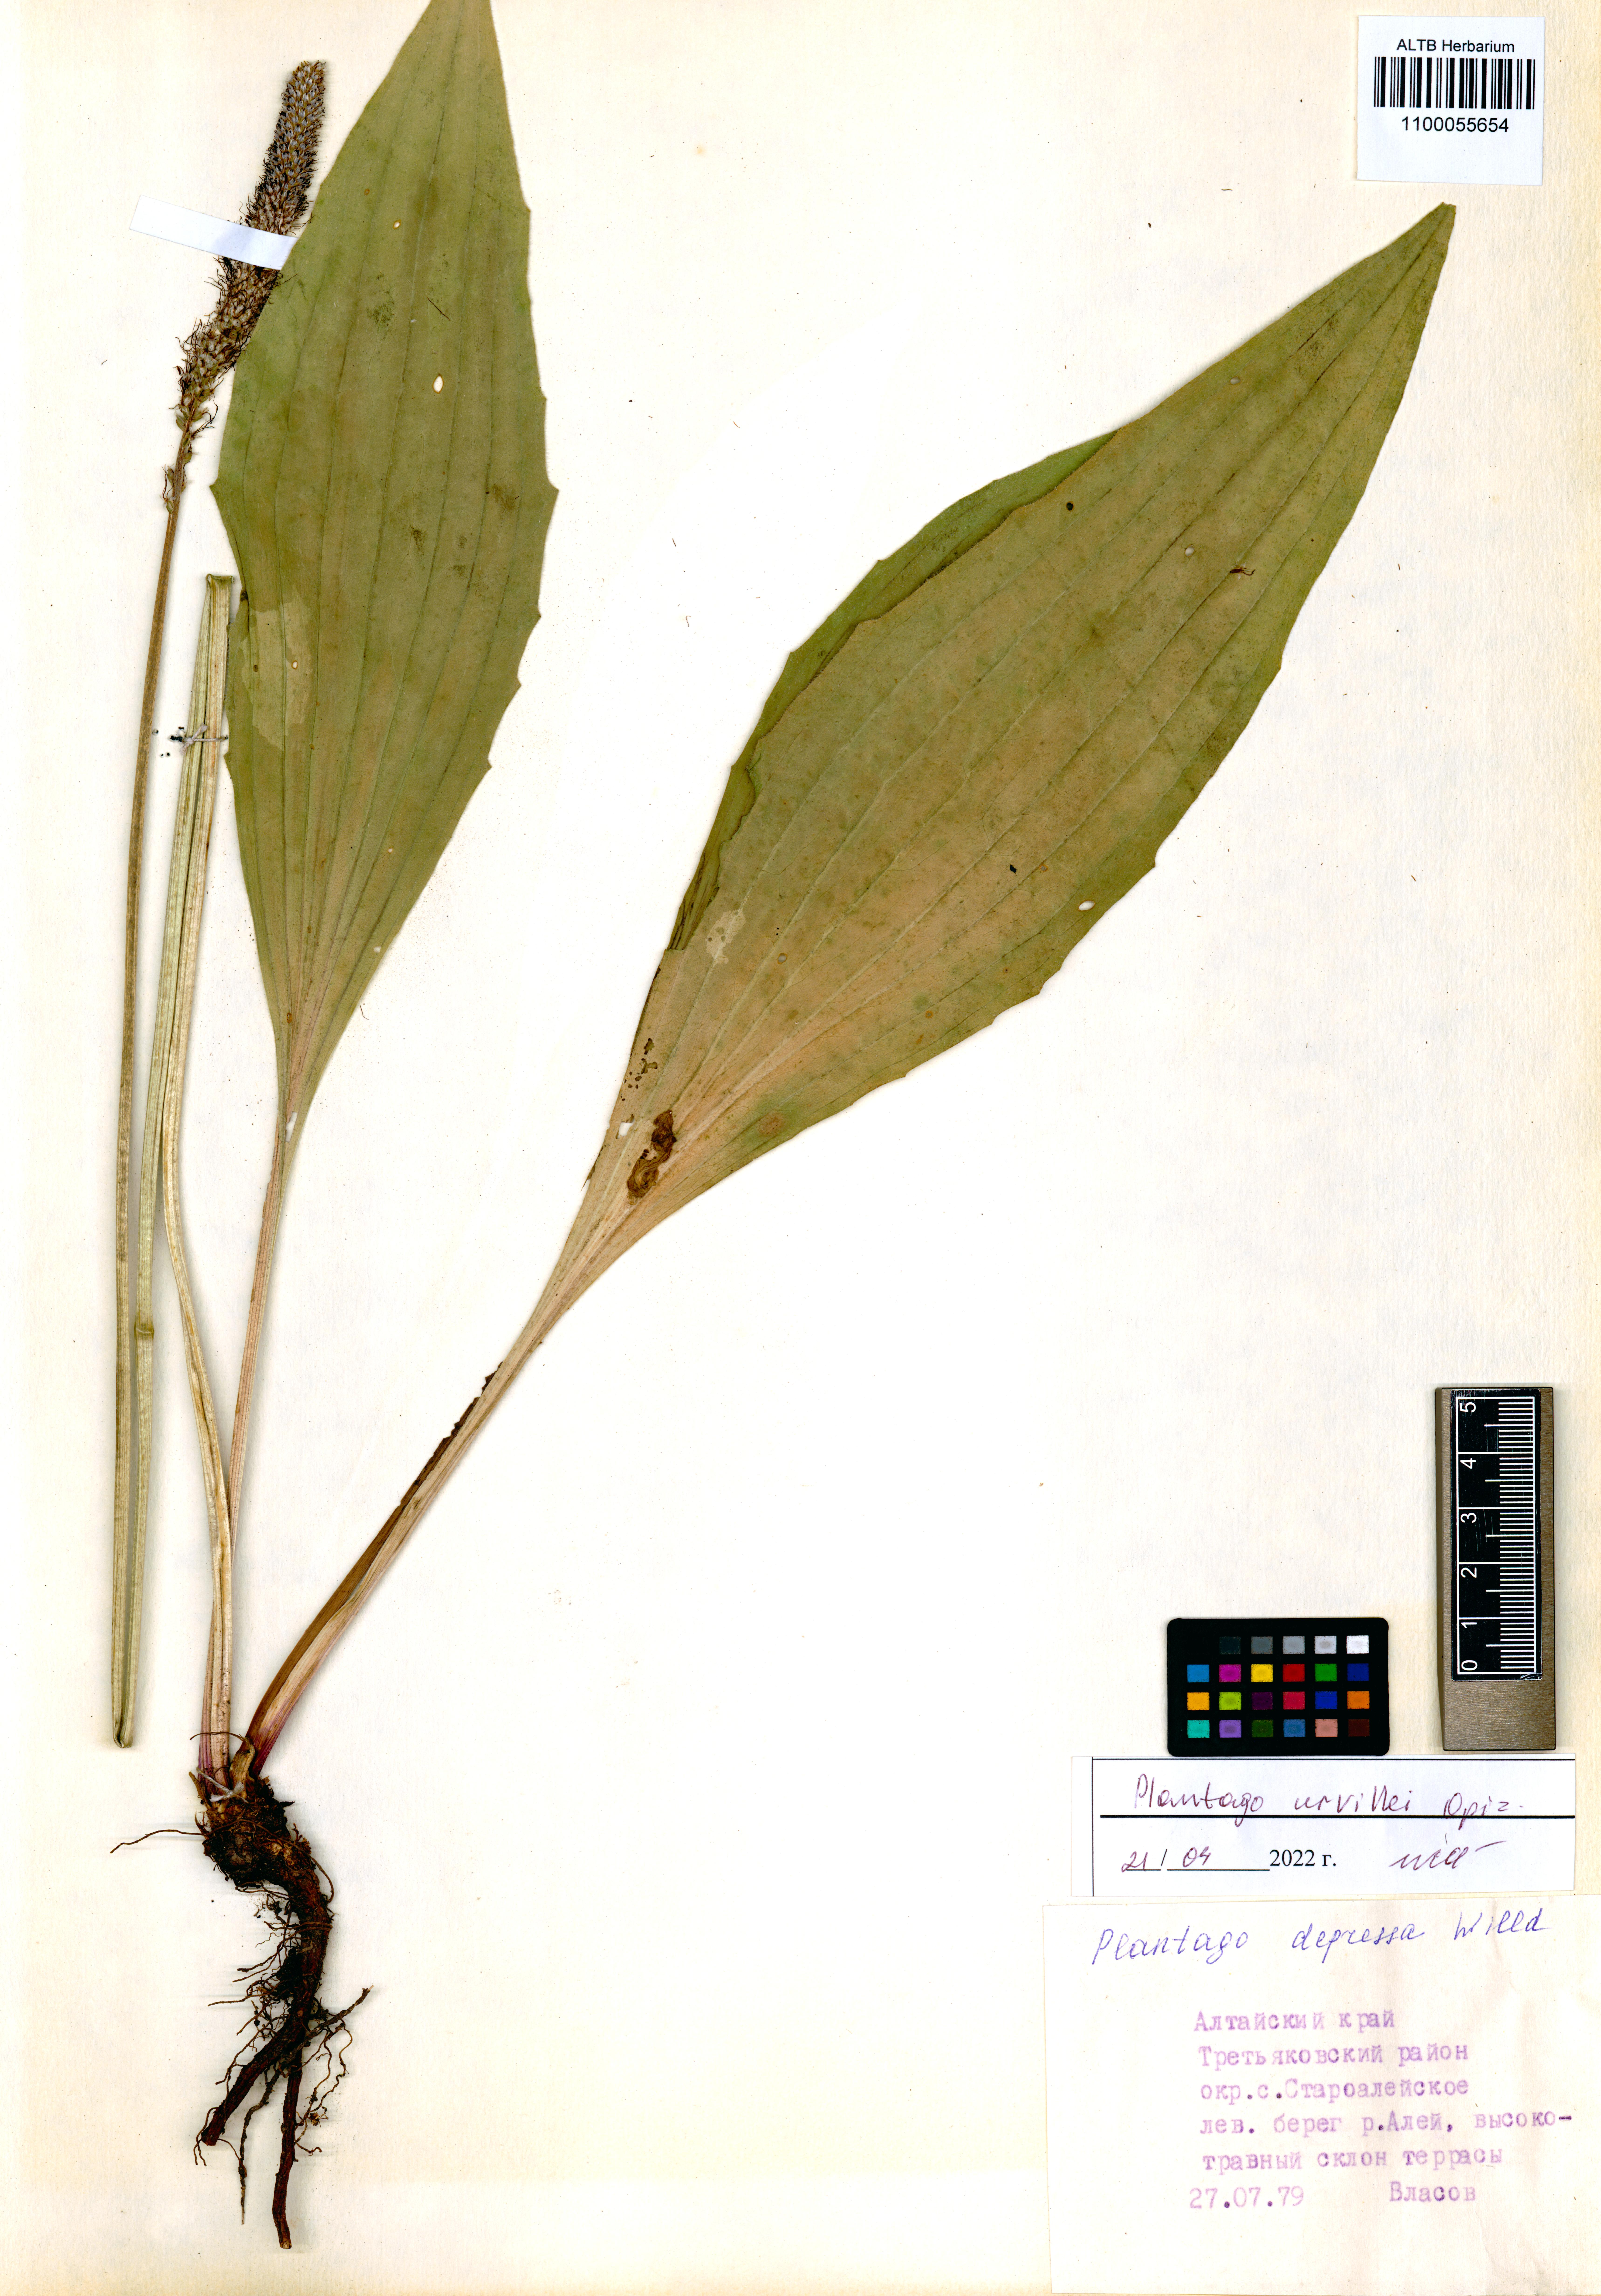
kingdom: Plantae
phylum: Tracheophyta
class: Magnoliopsida
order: Lamiales
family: Plantaginaceae
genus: Plantago
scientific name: Plantago urvillei
